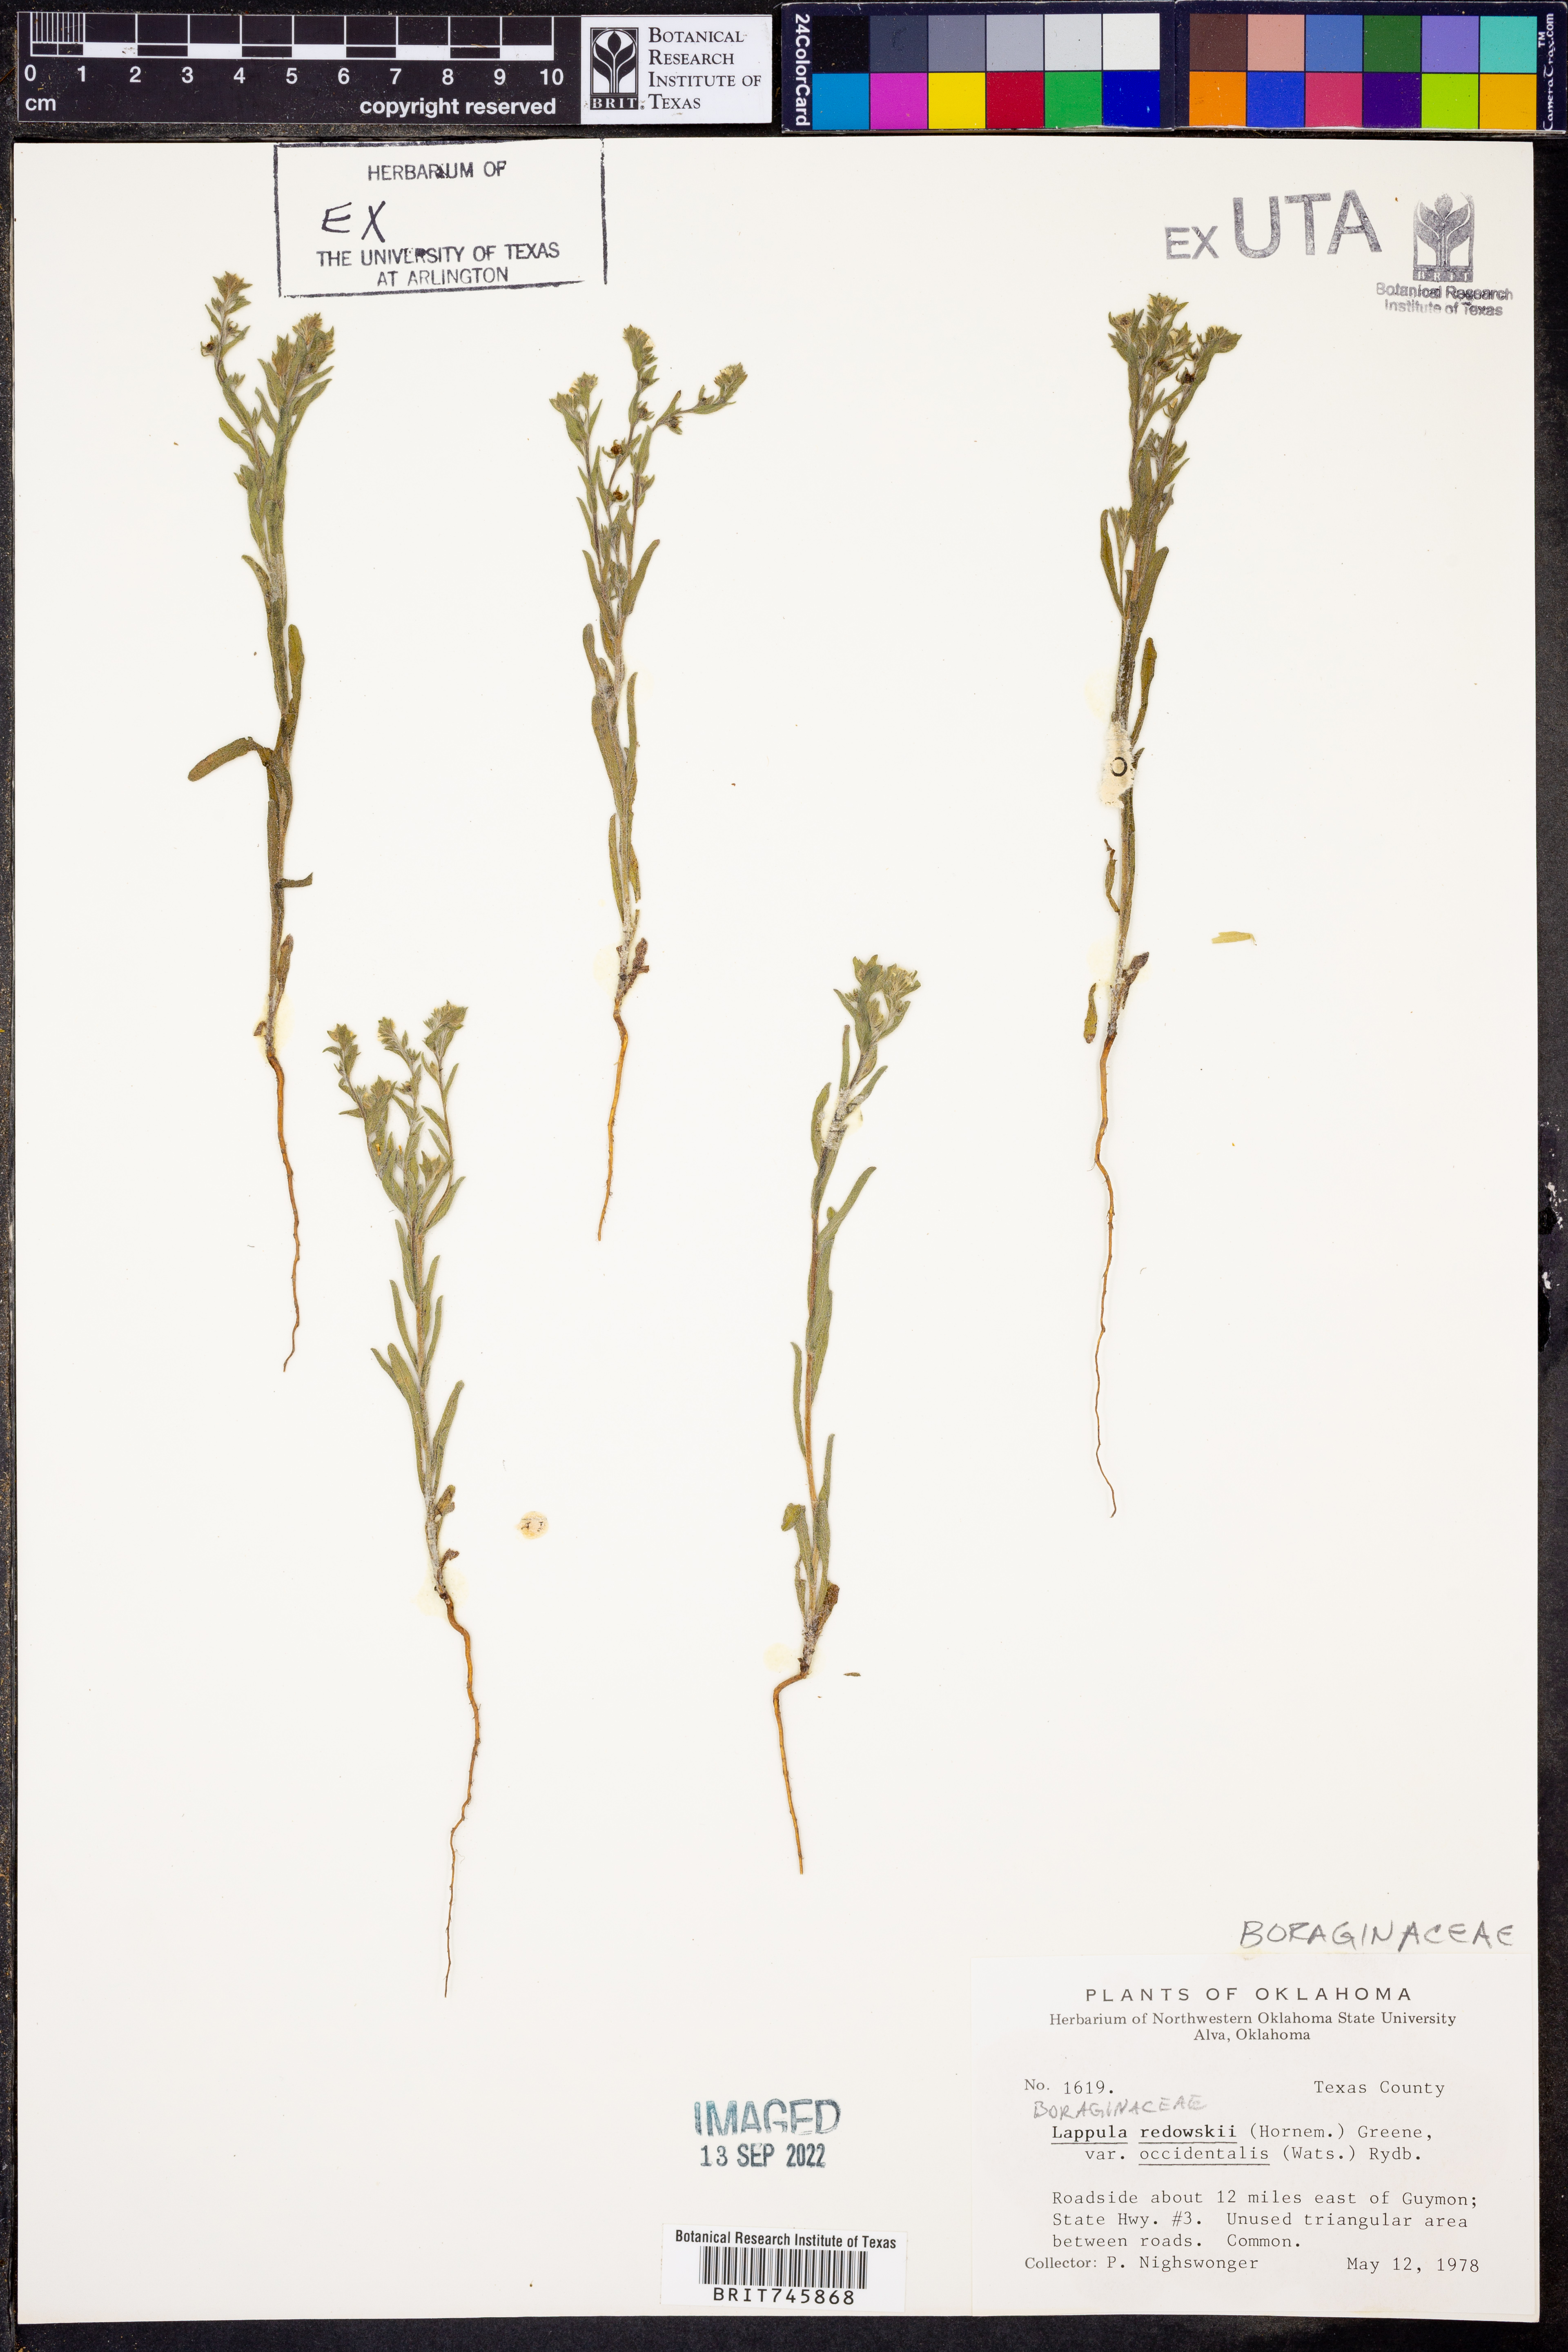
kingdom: Plantae
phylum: Tracheophyta
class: Magnoliopsida
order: Boraginales
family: Boraginaceae
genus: Lappula
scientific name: Lappula occidentalis
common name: Western stickseed
